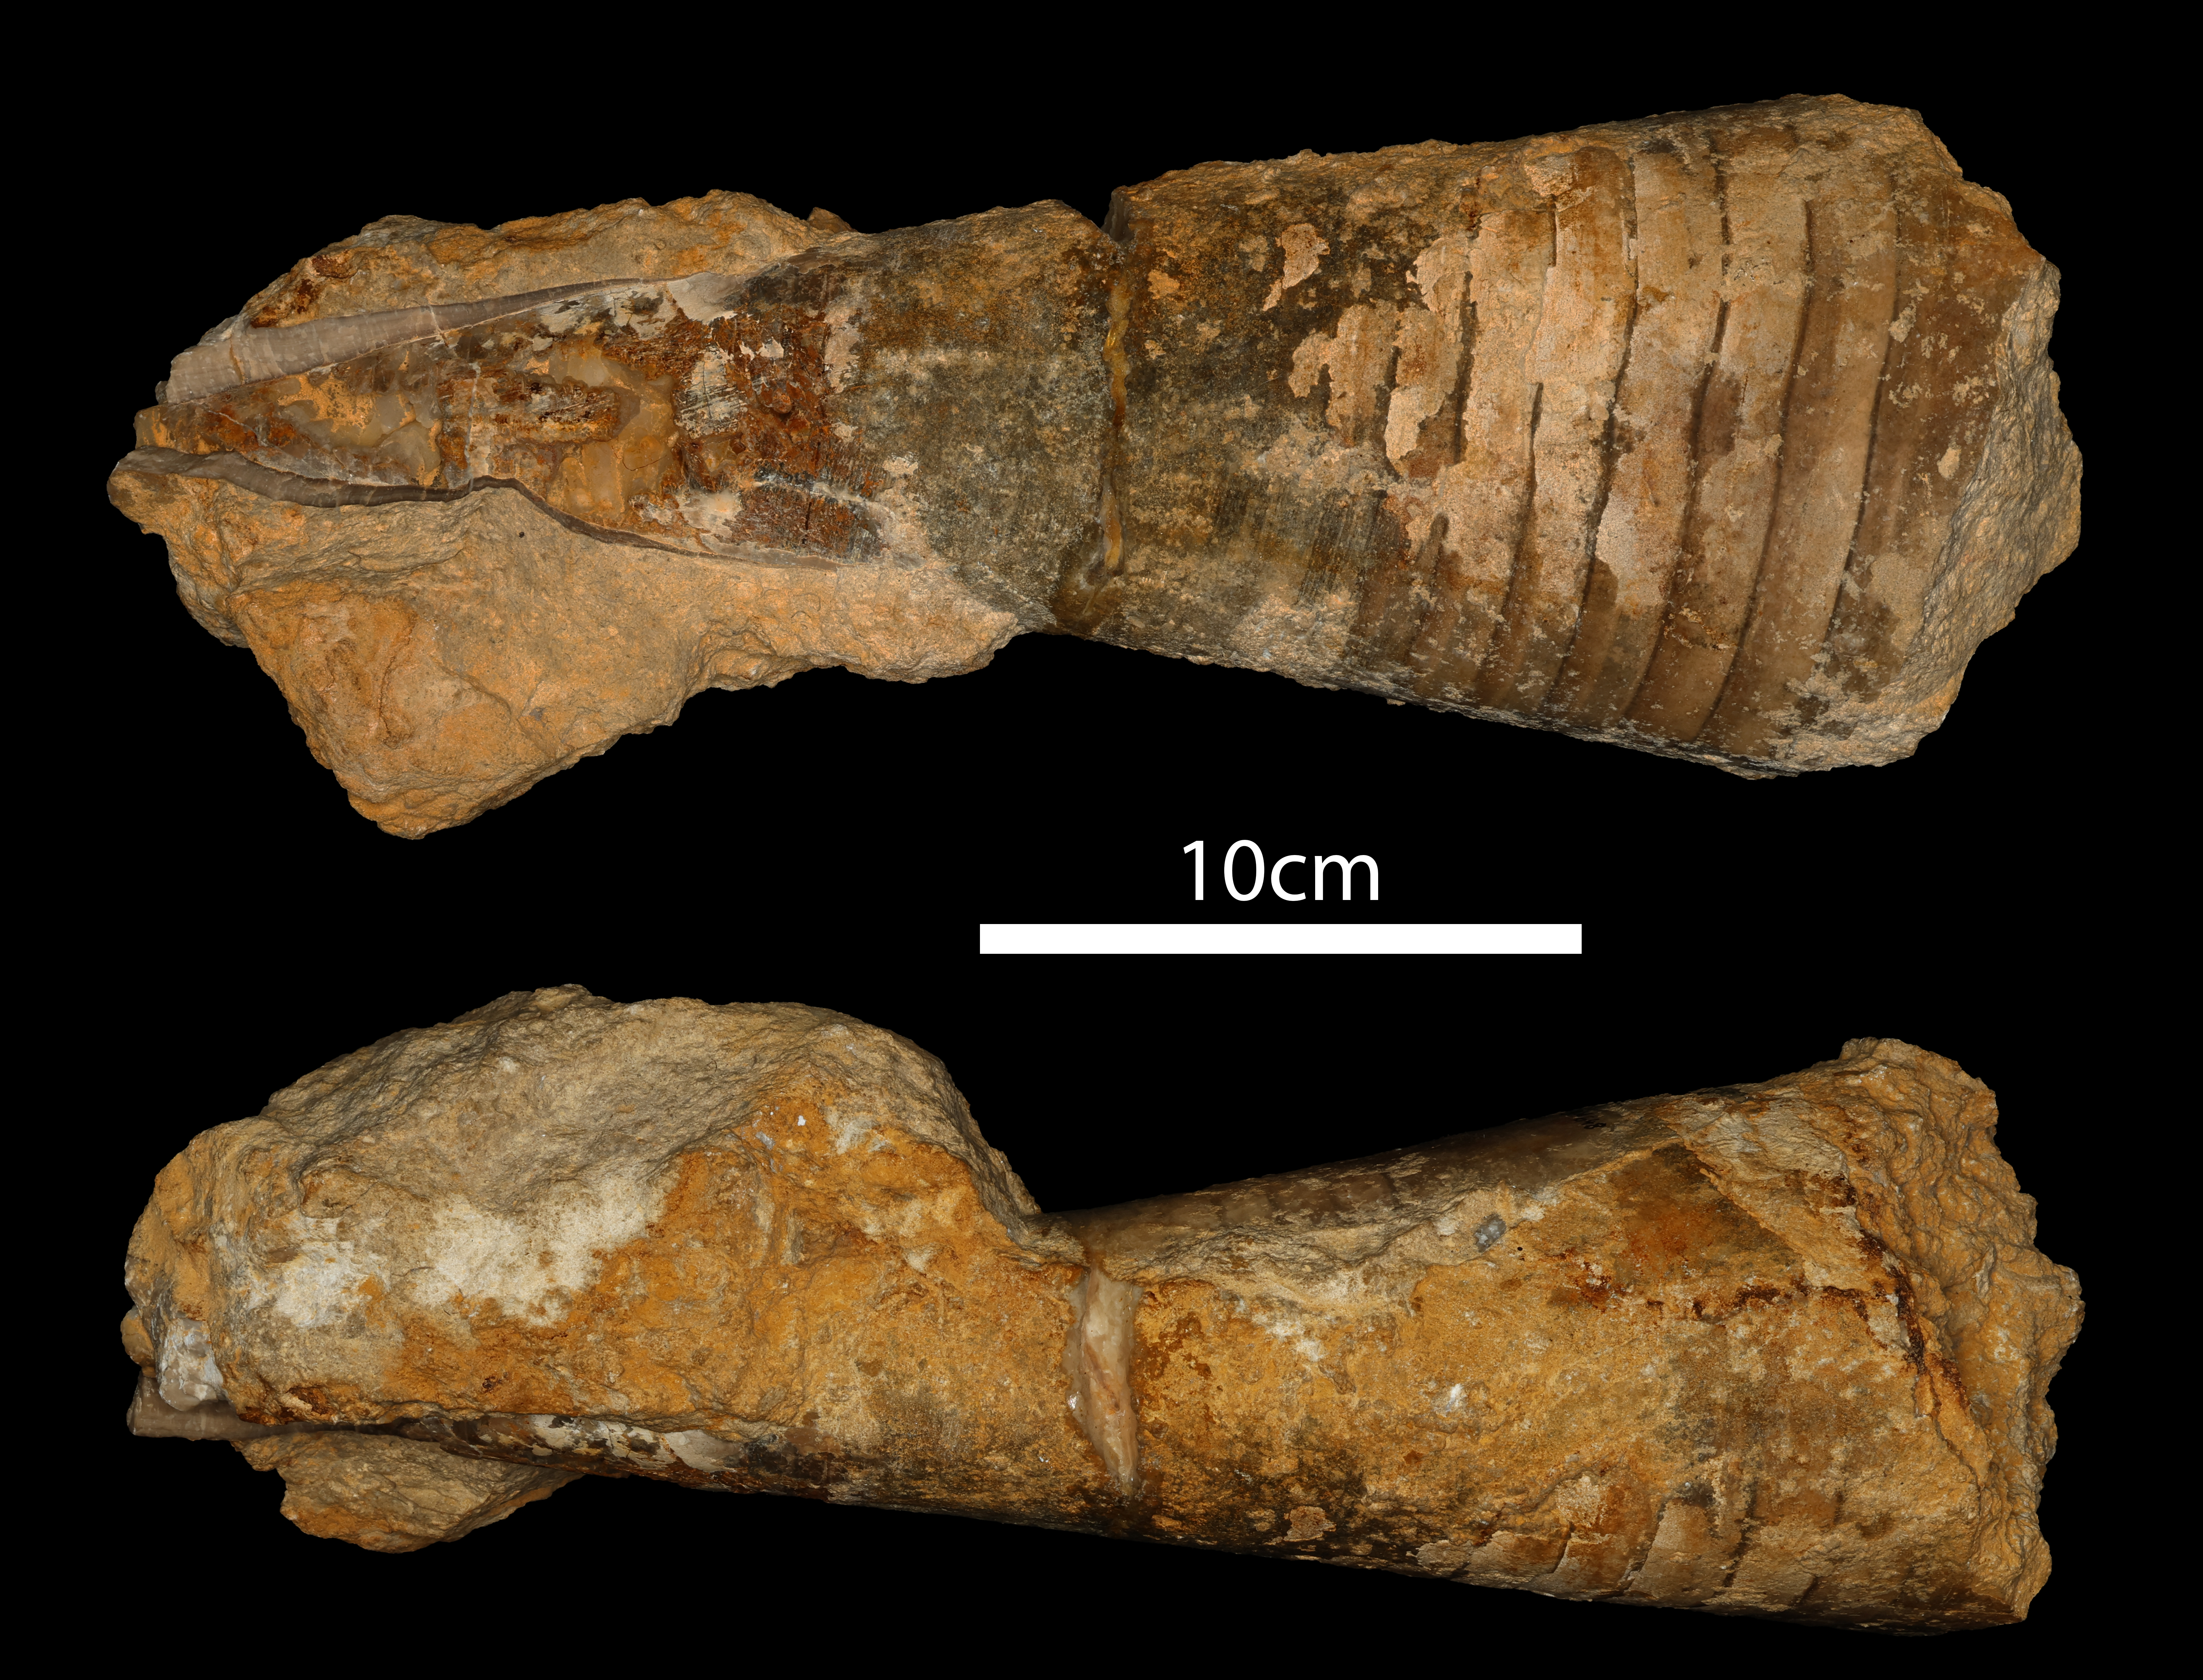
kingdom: Animalia
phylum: Mollusca
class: Cephalopoda
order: Belemnitida
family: Megateuthididae
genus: Megateuthis
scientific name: Megateuthis
